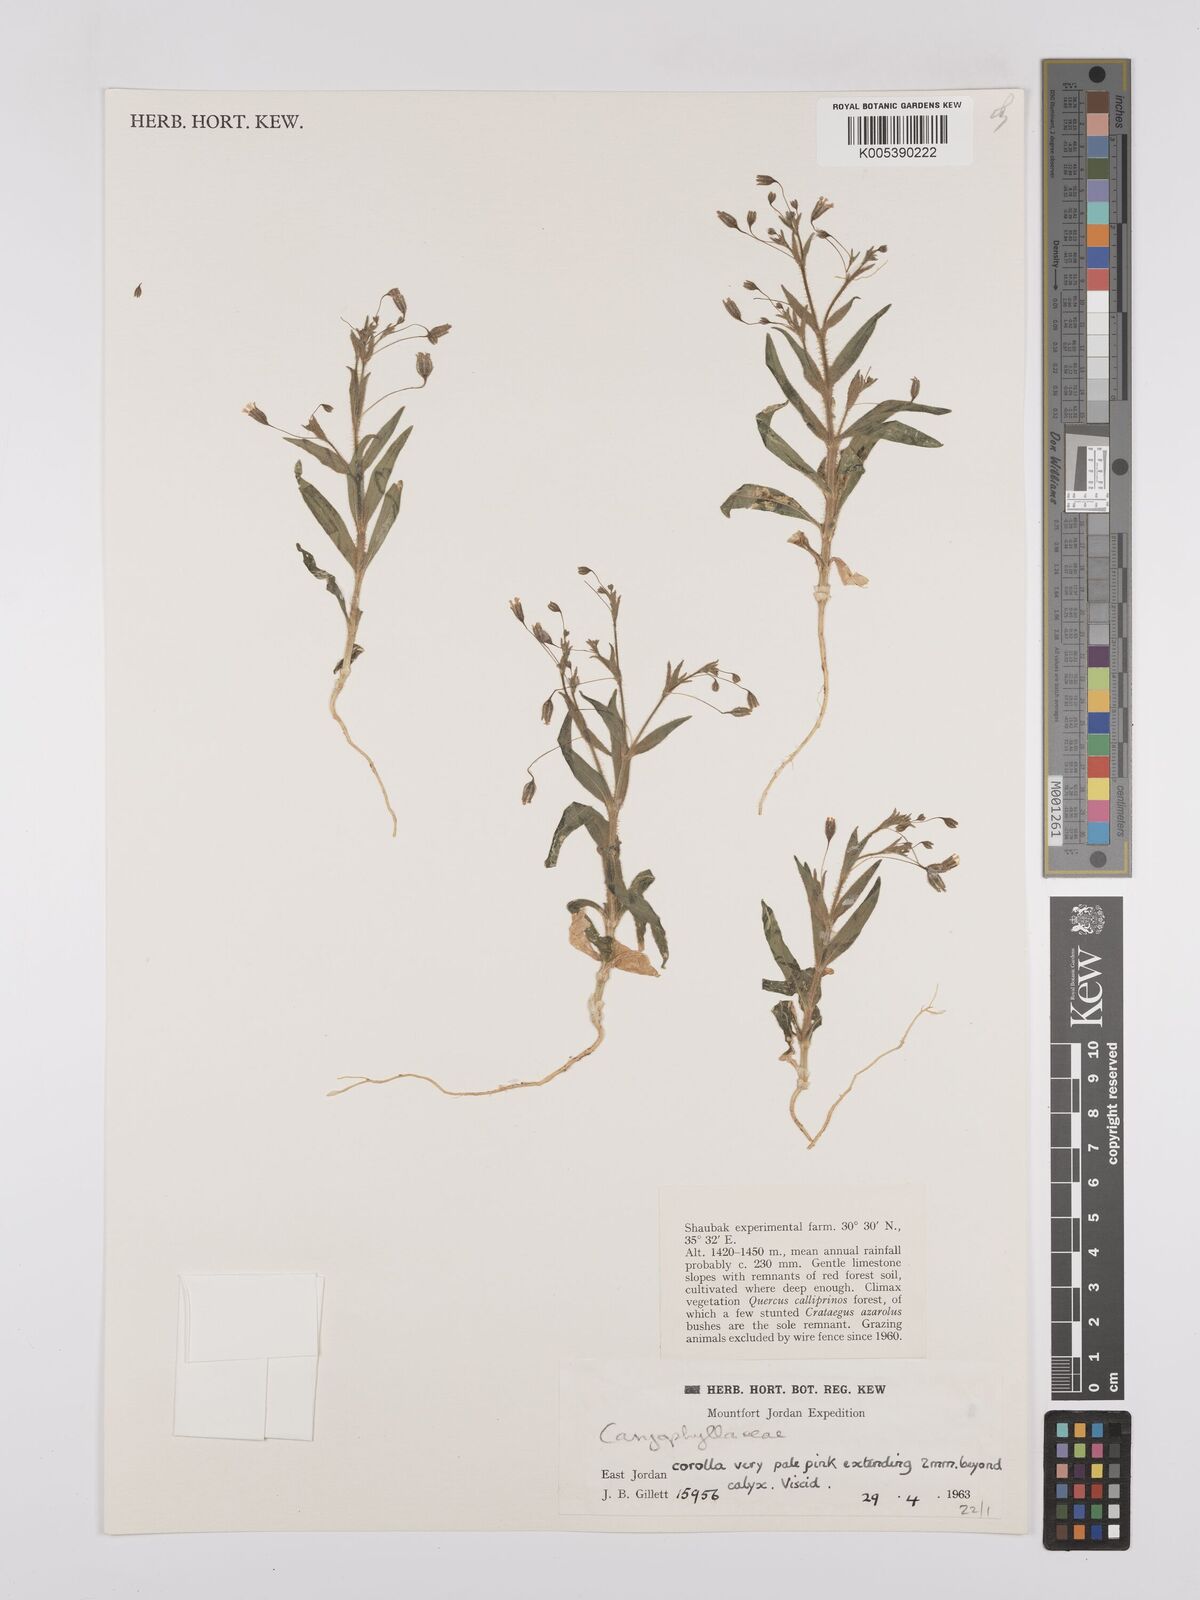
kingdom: Plantae
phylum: Tracheophyta
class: Magnoliopsida
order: Caryophyllales
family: Caryophyllaceae
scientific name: Caryophyllaceae
